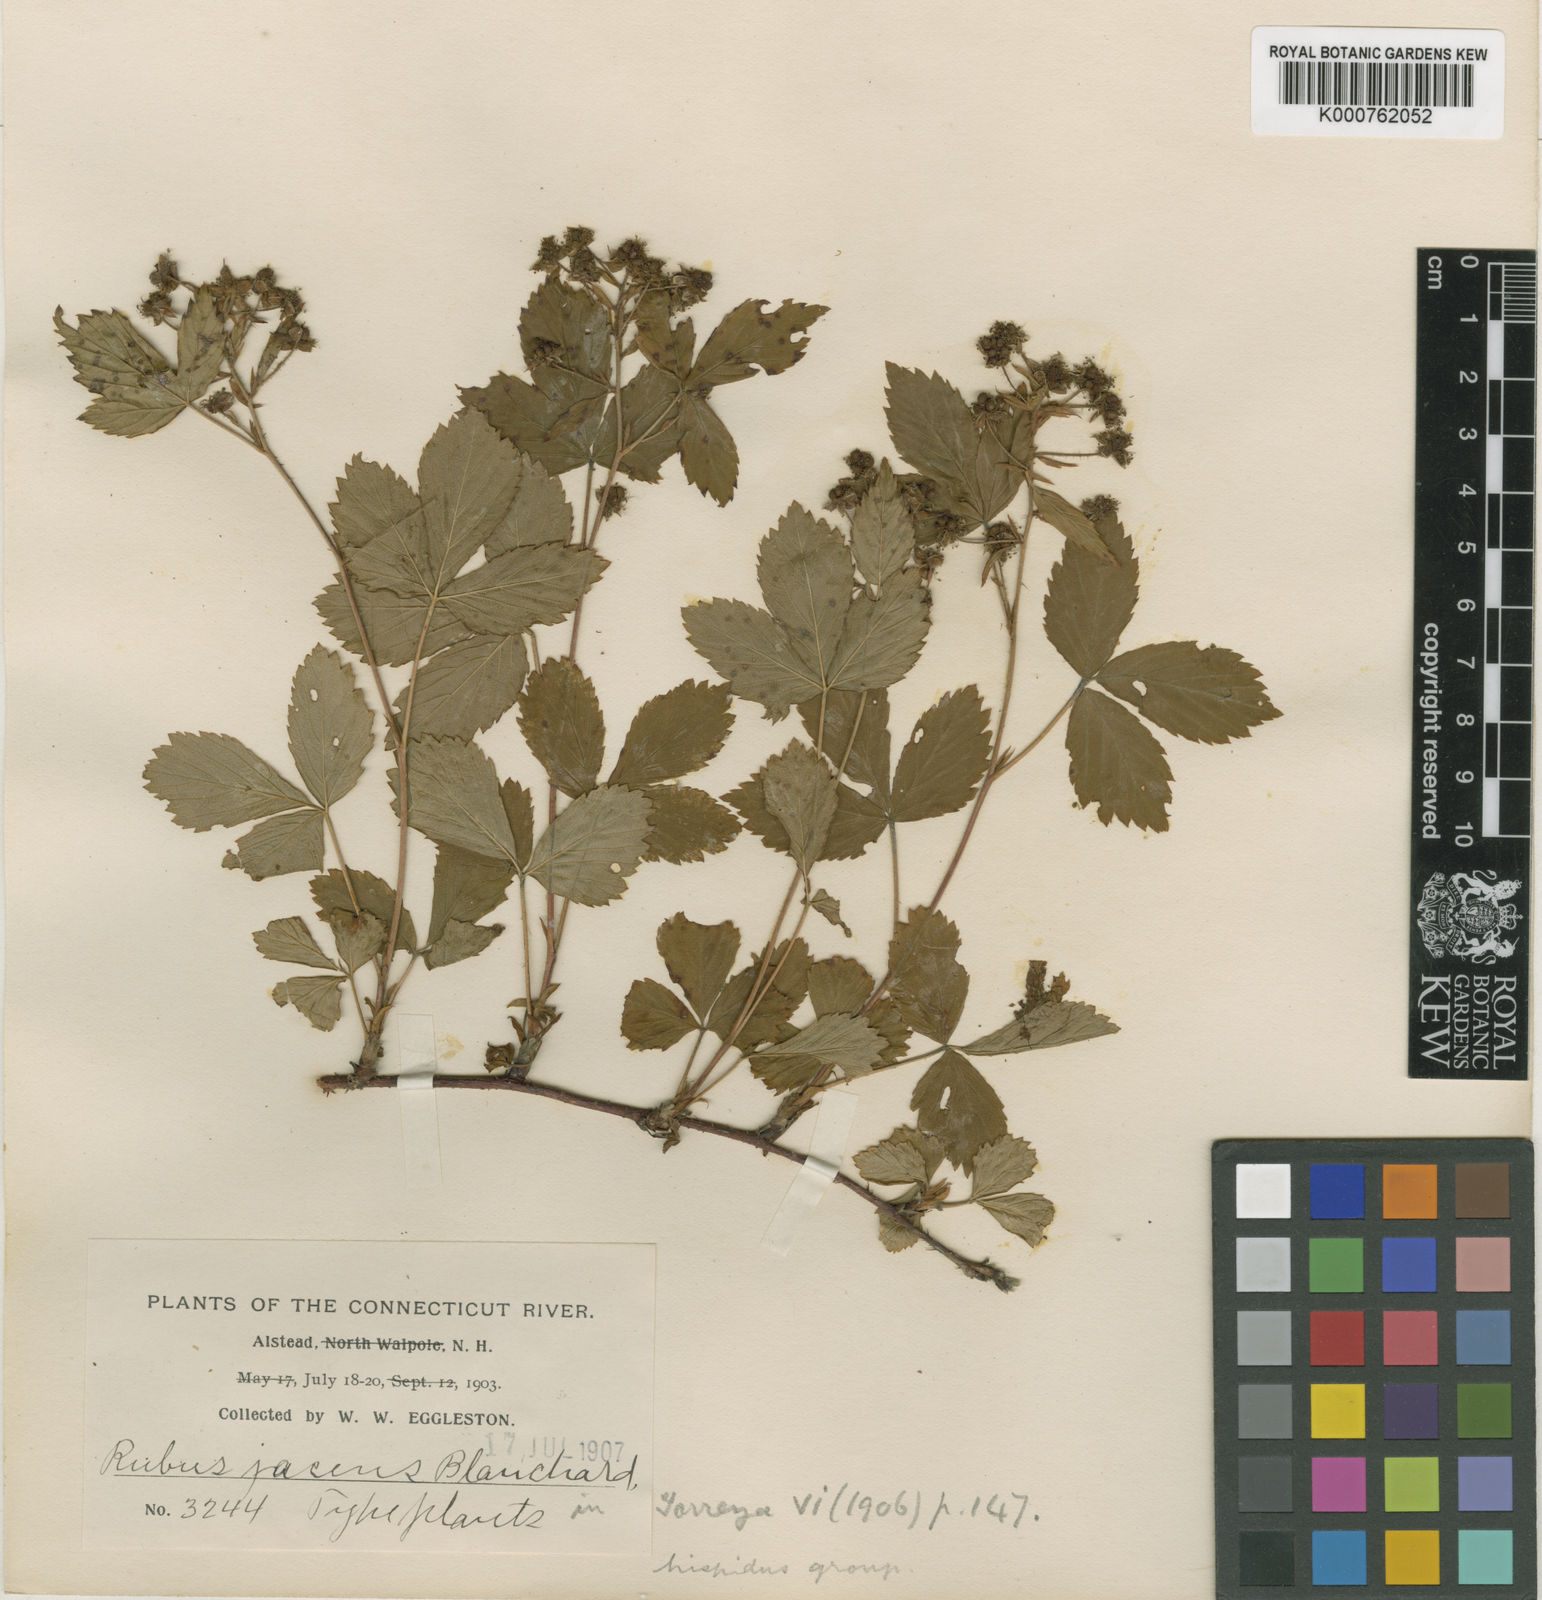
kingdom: Plantae
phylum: Tracheophyta
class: Magnoliopsida
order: Rosales
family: Rosaceae
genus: Rubus
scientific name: Rubus trifrons
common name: Threeleaflet dewberry
